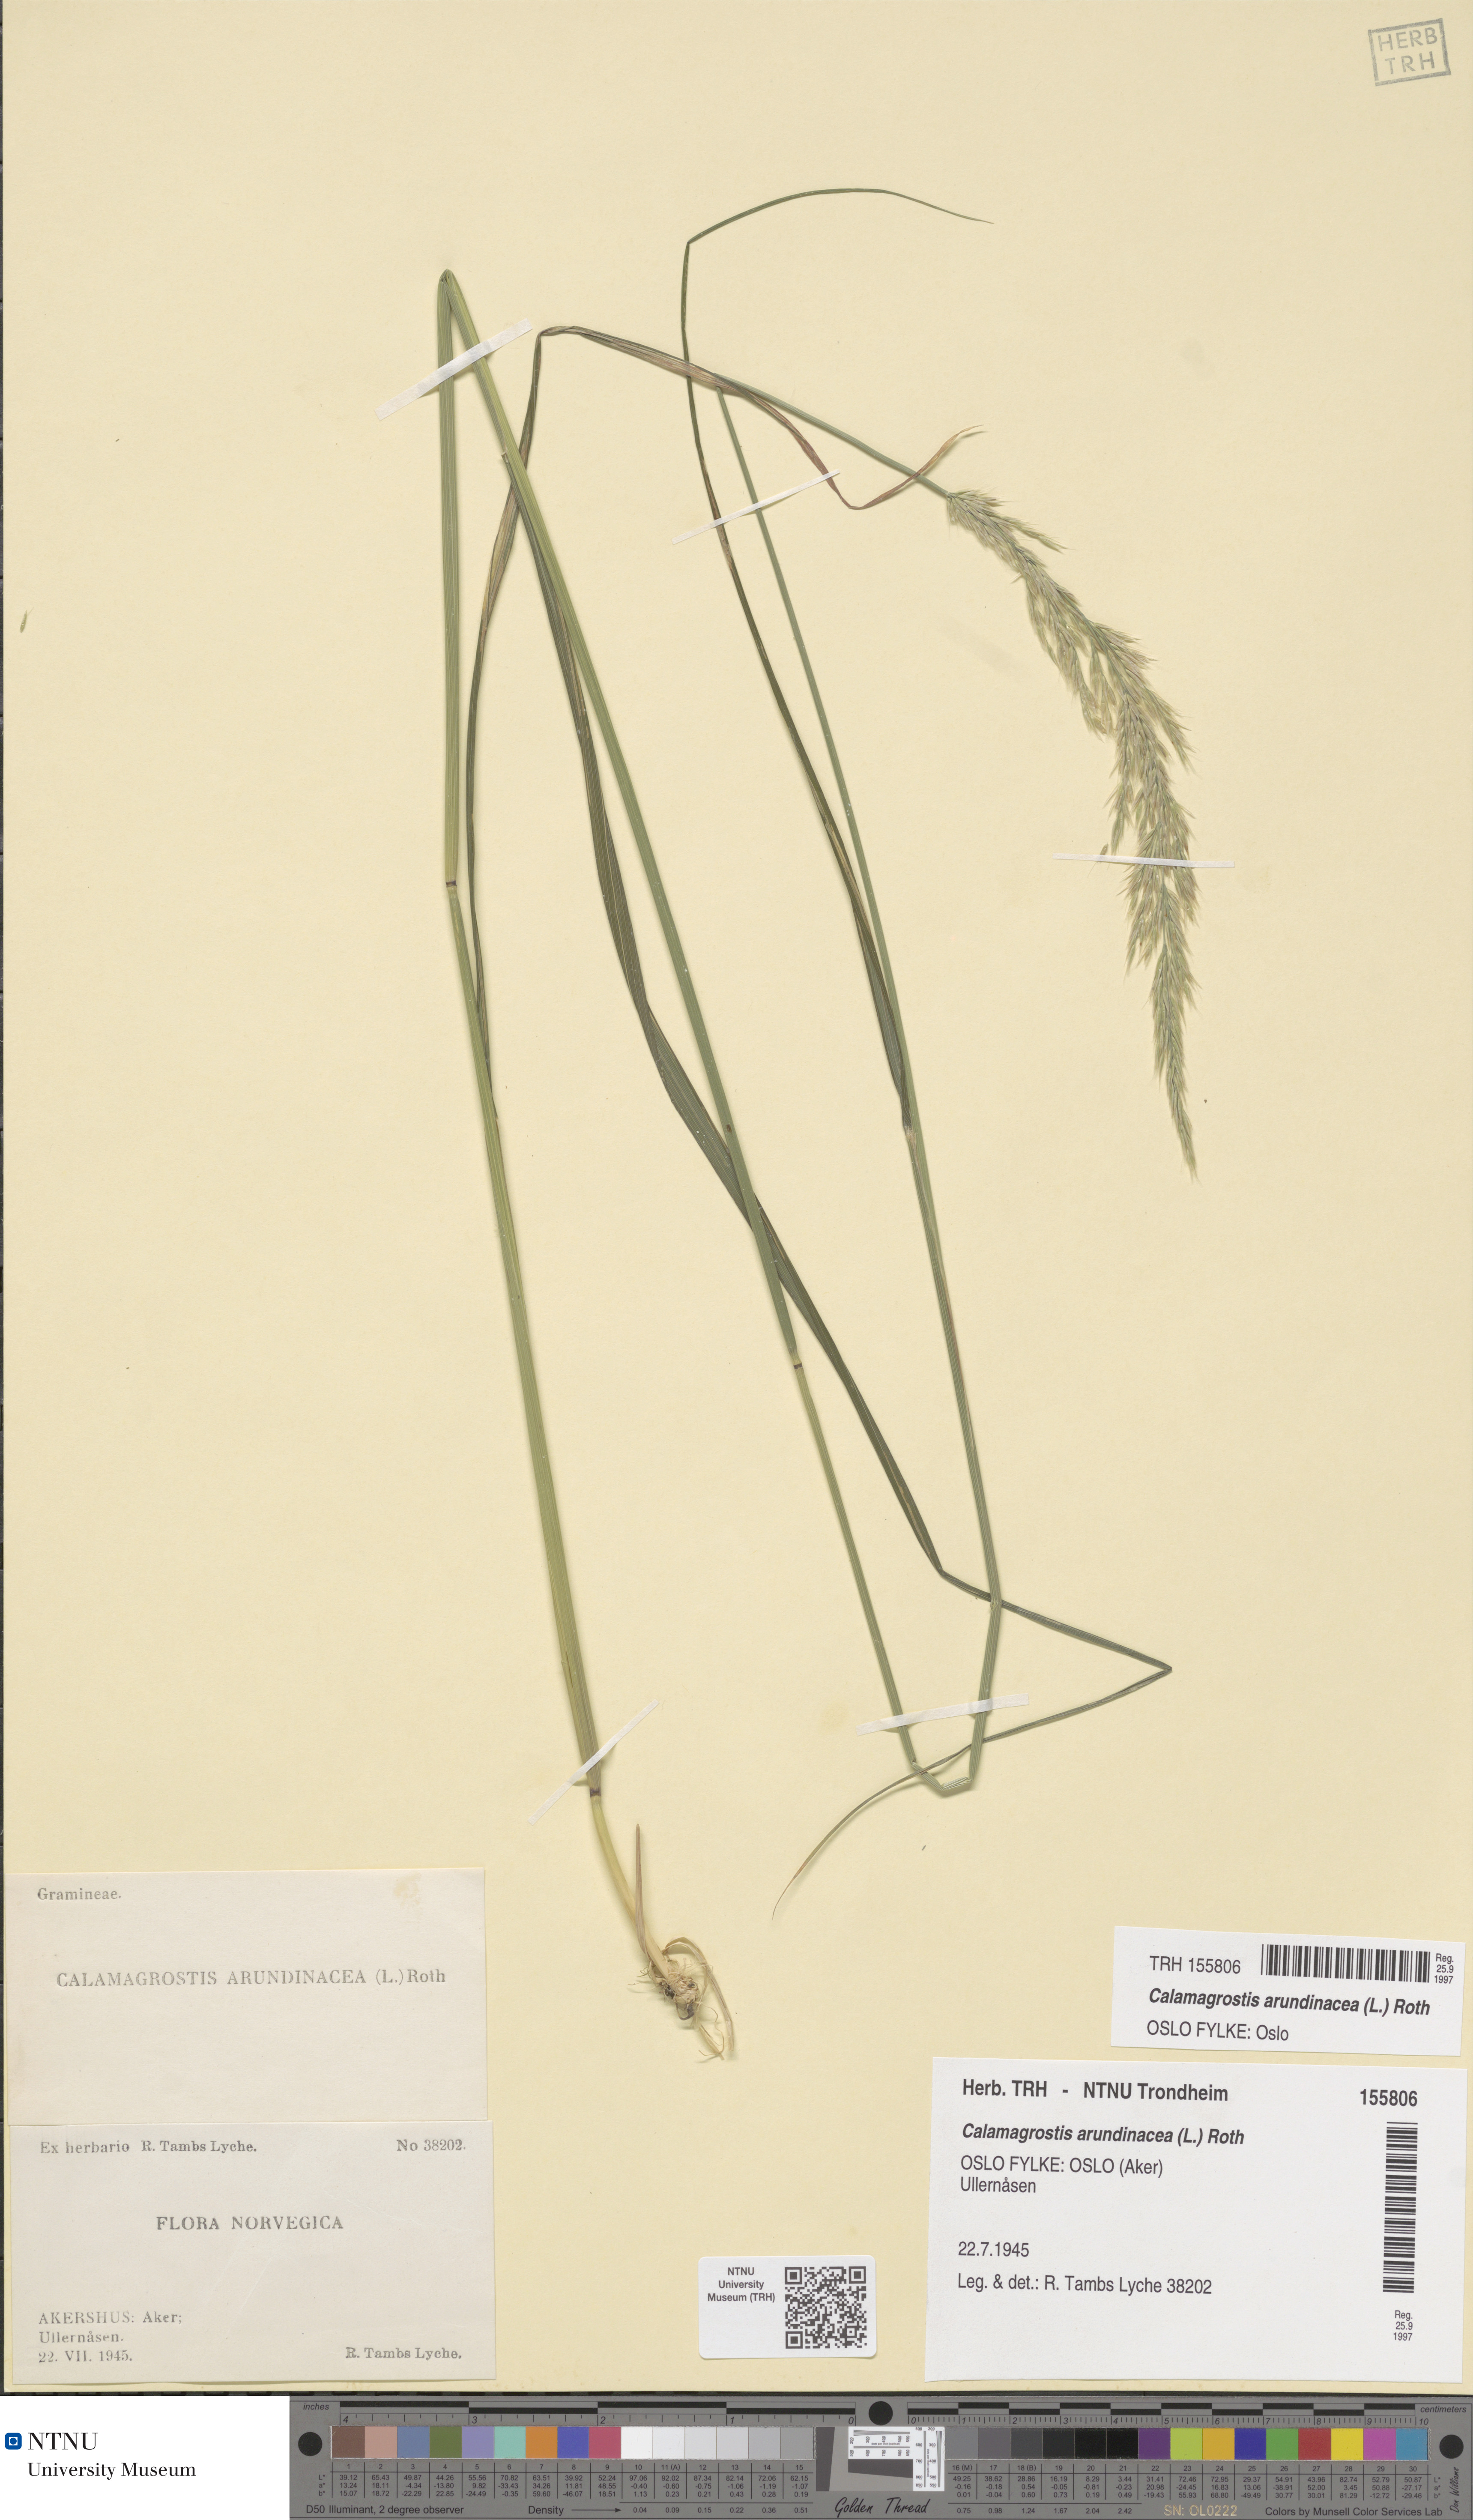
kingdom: Plantae
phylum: Tracheophyta
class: Liliopsida
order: Poales
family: Poaceae
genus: Calamagrostis
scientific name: Calamagrostis arundinacea
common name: Metskastik
